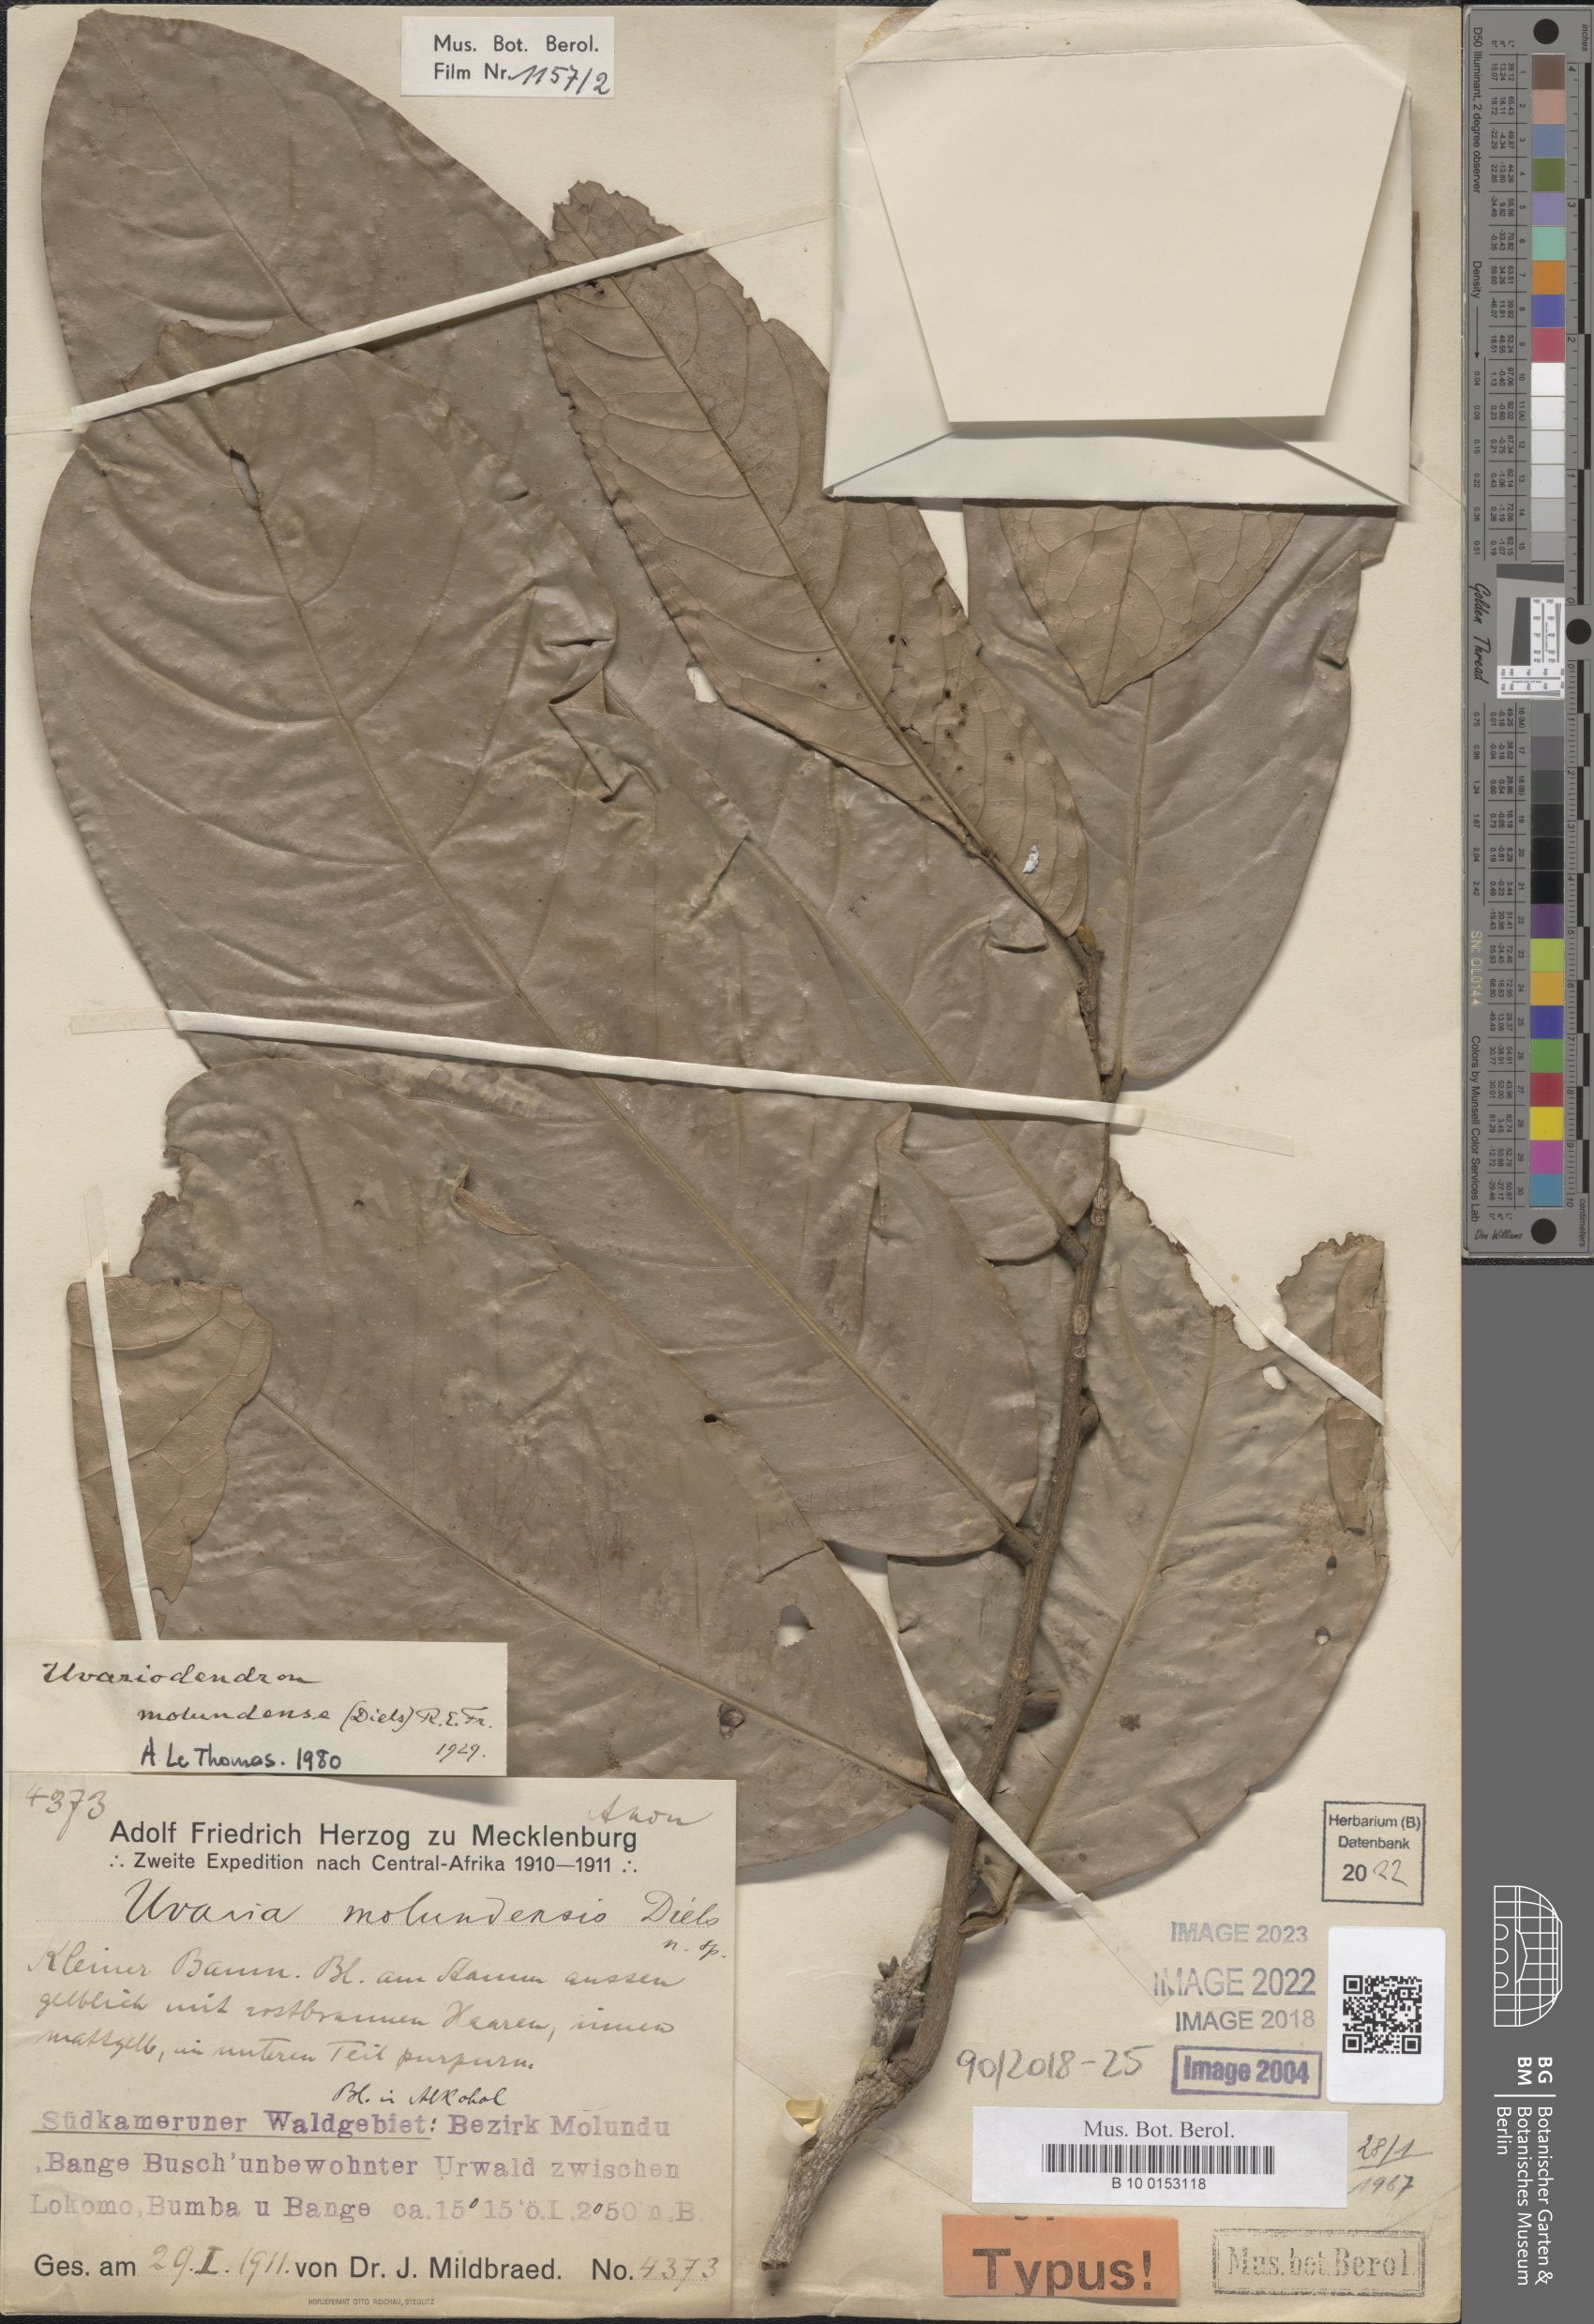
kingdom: Plantae
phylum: Tracheophyta
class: Magnoliopsida
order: Magnoliales
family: Annonaceae
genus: Uvariodendron
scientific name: Uvariodendron molundense
